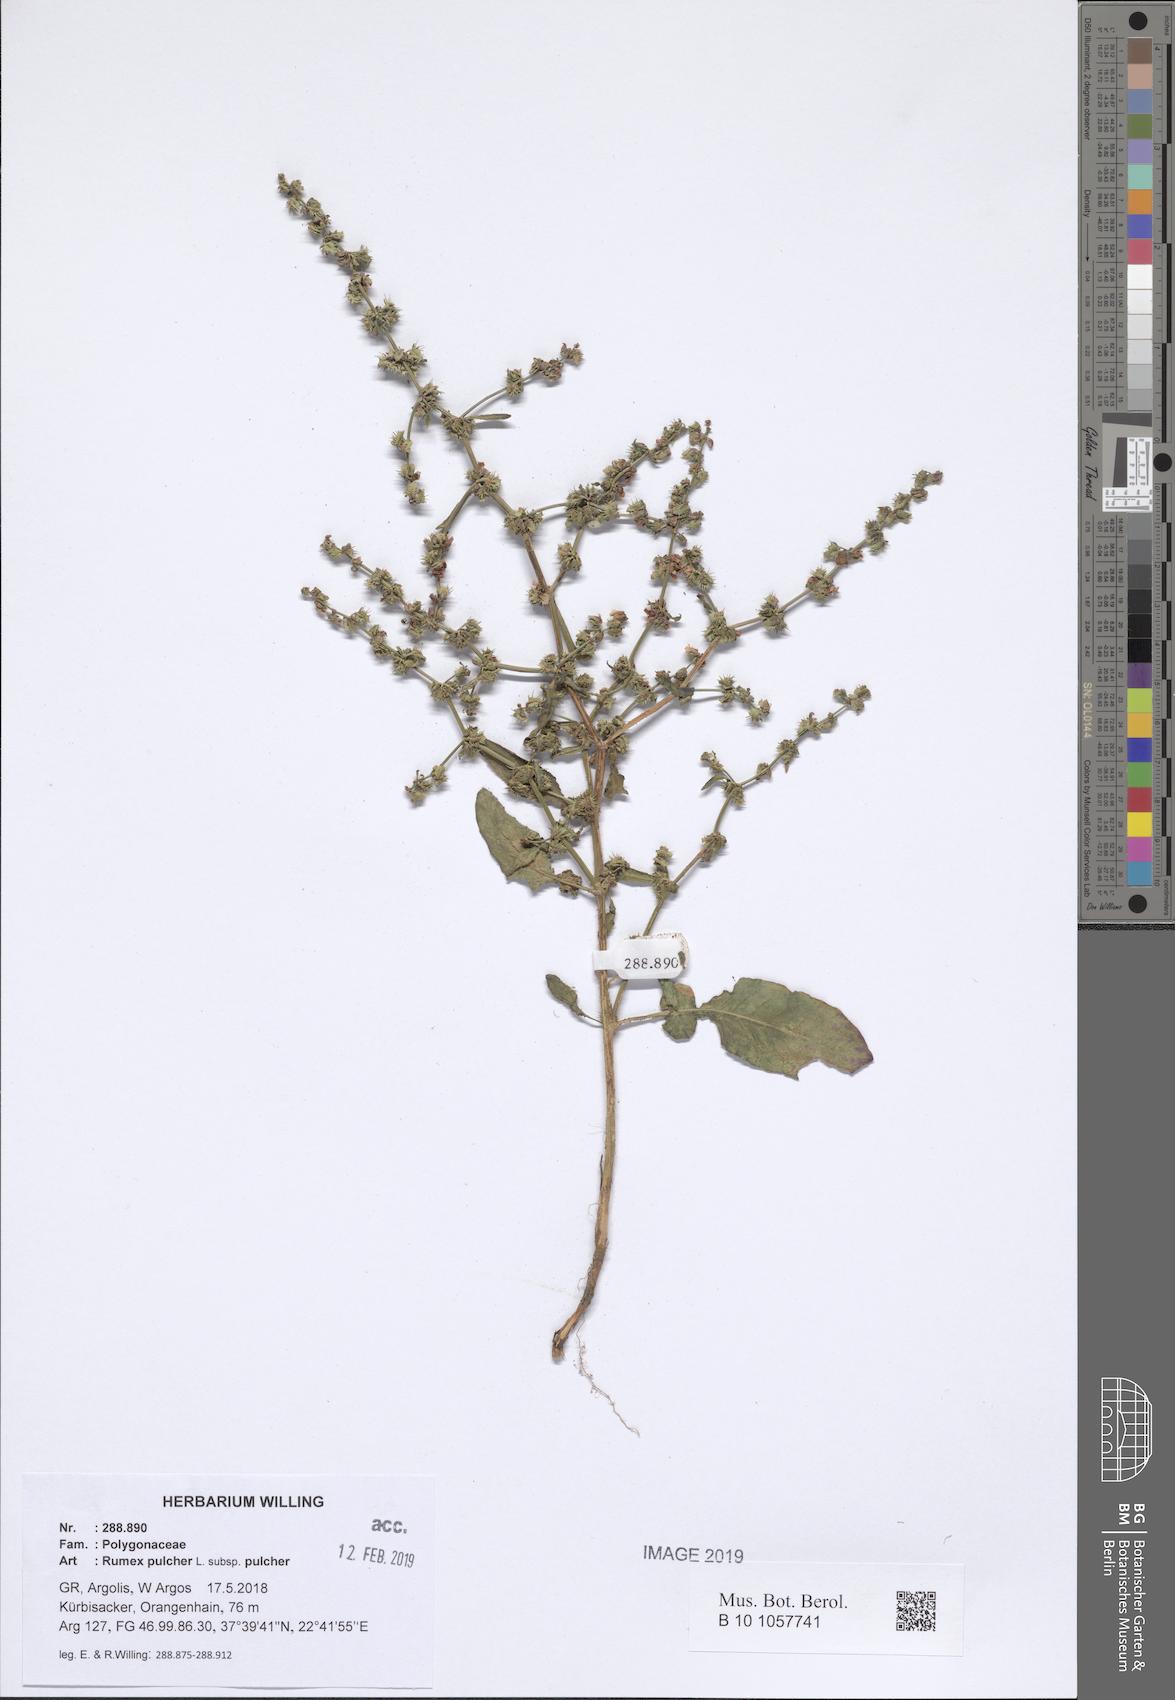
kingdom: Plantae
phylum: Tracheophyta
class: Magnoliopsida
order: Caryophyllales
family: Polygonaceae
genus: Rumex
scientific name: Rumex pulcher
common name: Fiddle dock
